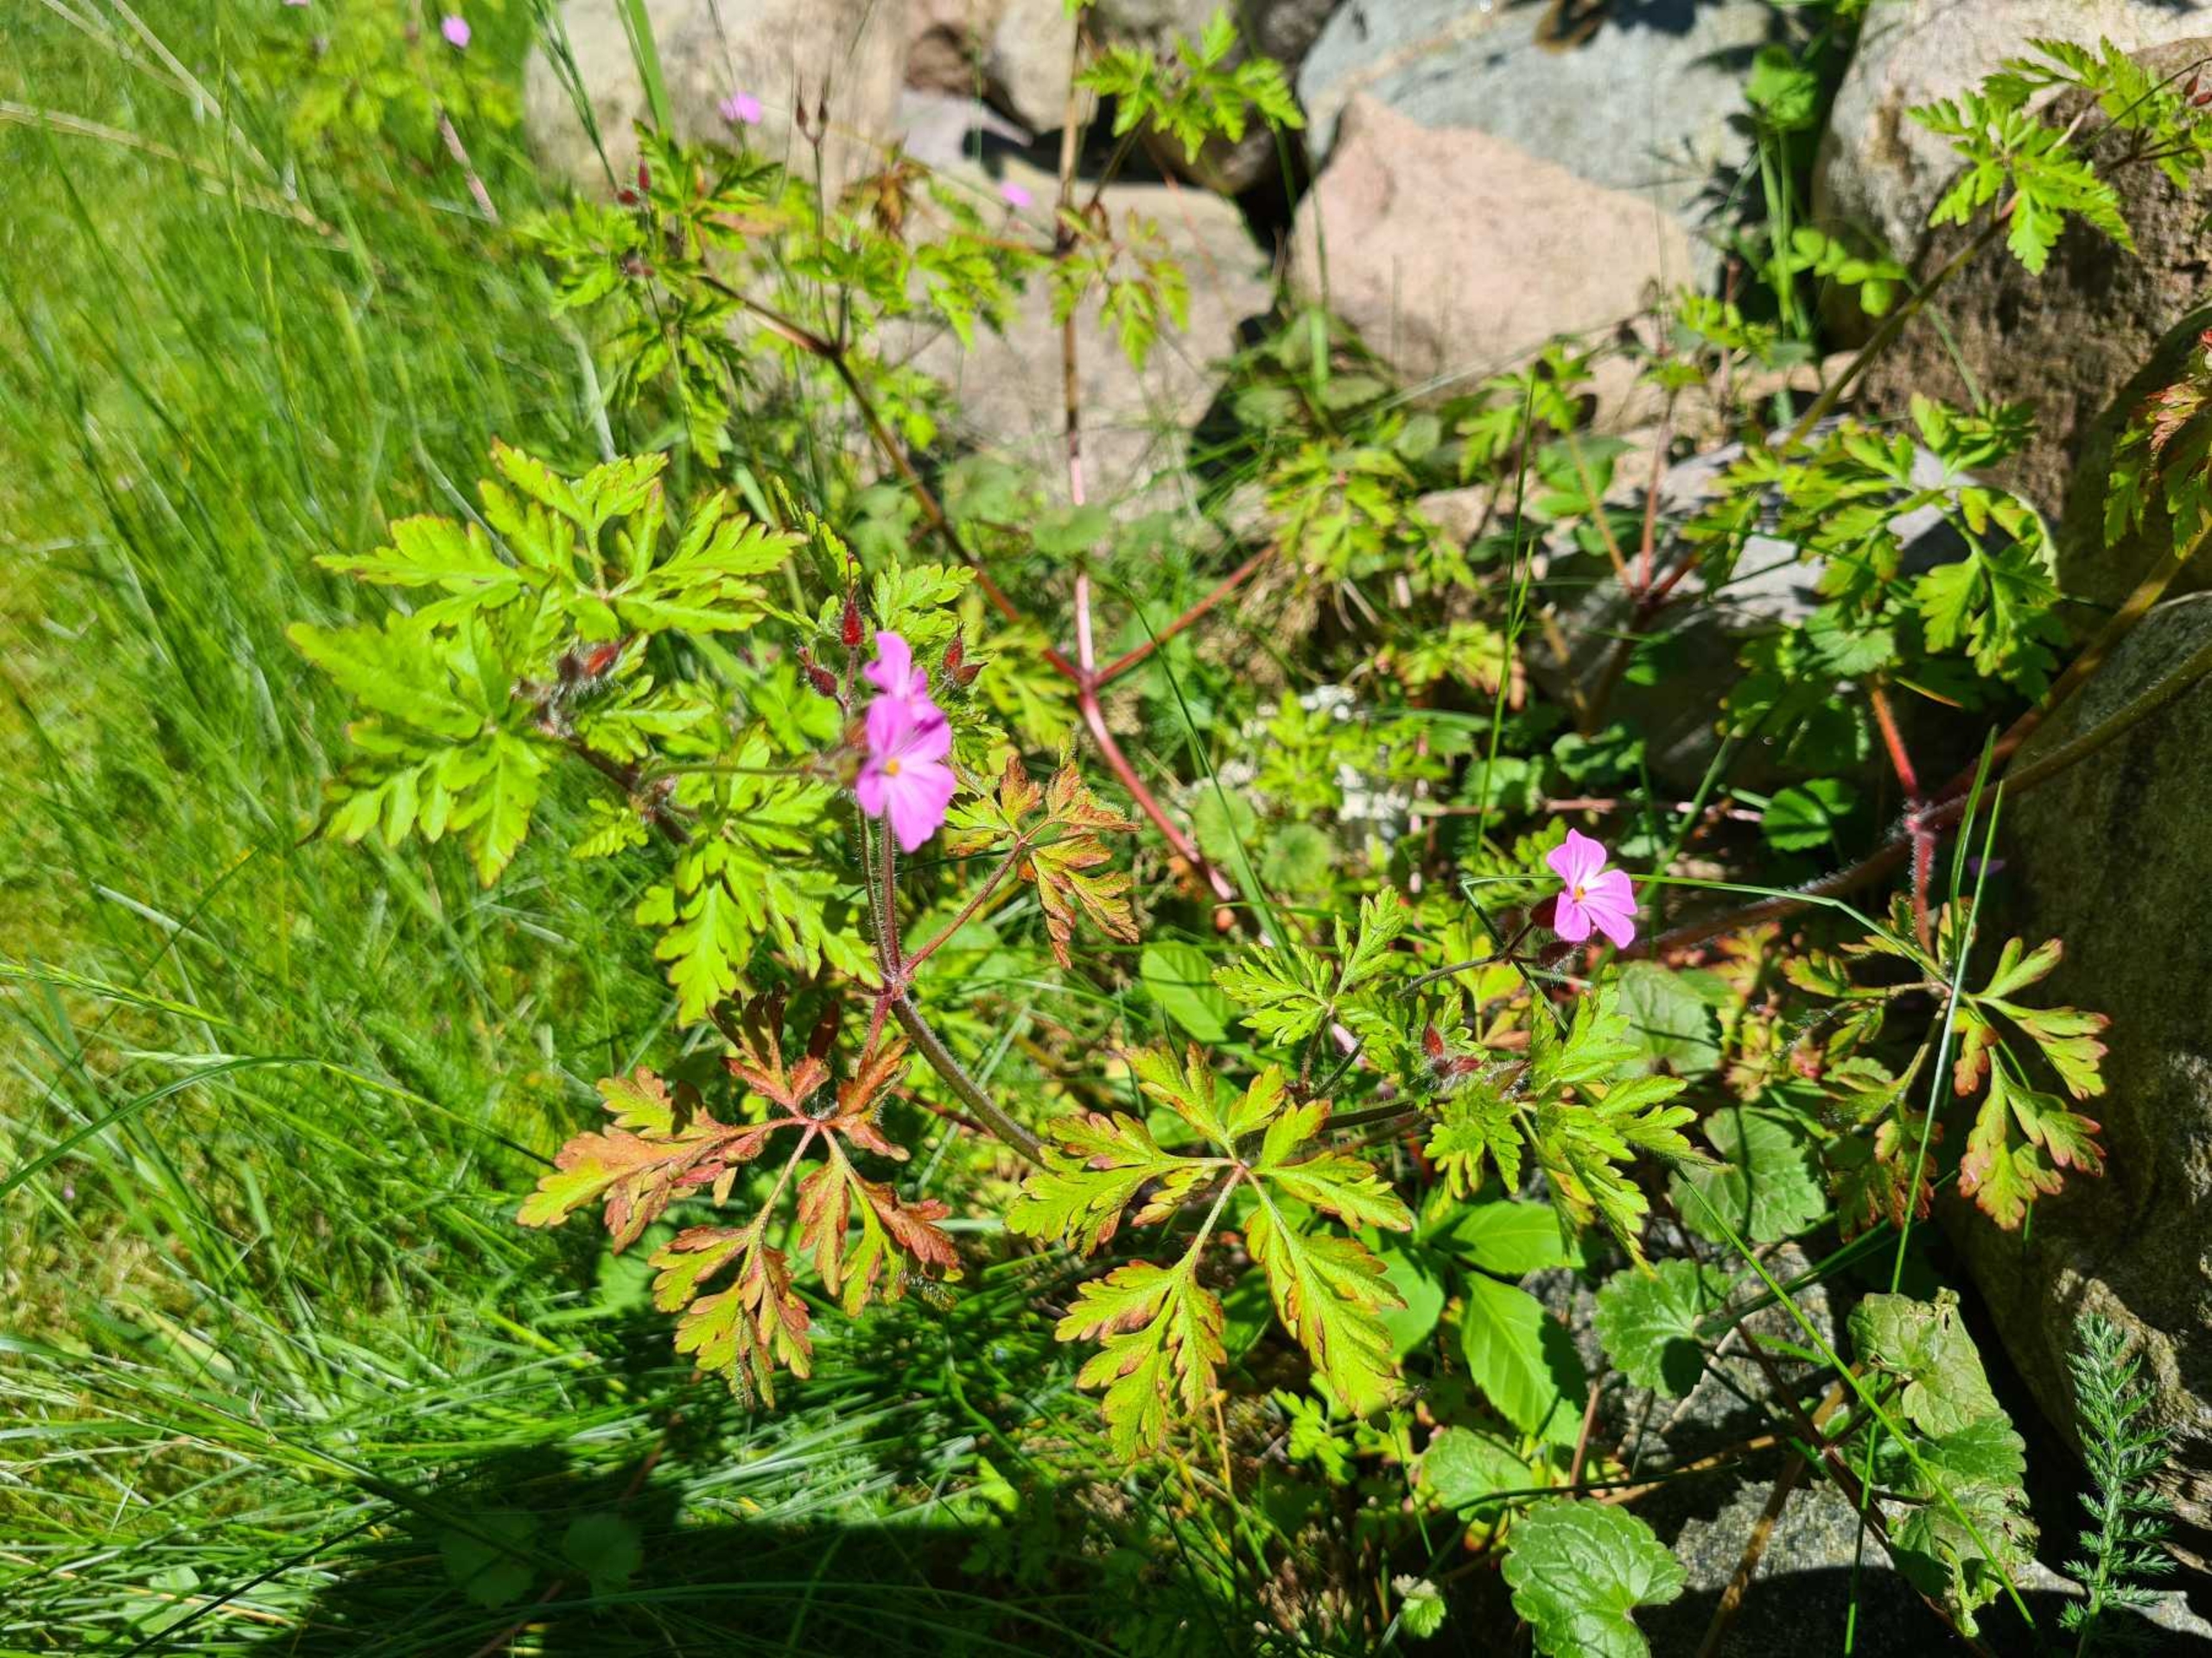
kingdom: Plantae
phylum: Tracheophyta
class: Magnoliopsida
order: Geraniales
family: Geraniaceae
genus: Geranium
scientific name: Geranium robertianum
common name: Stinkende storkenæb
